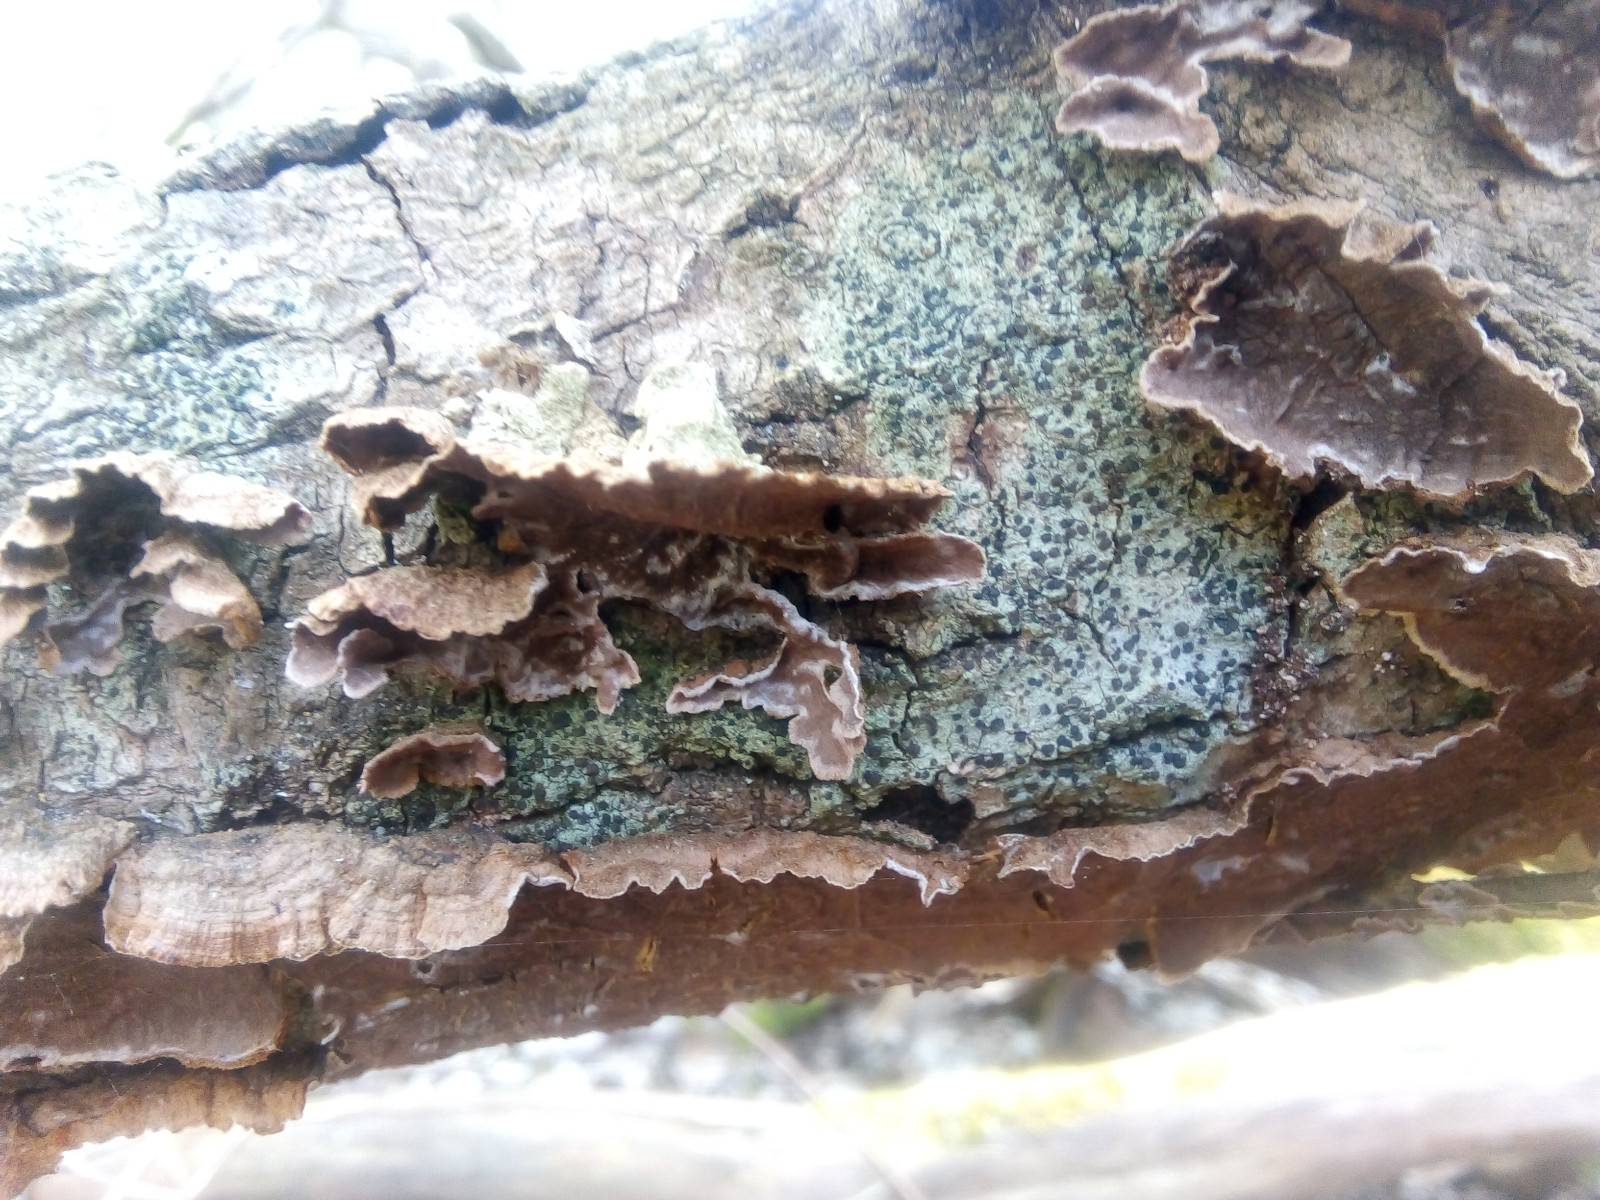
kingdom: Fungi
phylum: Basidiomycota
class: Agaricomycetes
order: Hymenochaetales
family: Hymenochaetaceae
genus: Hydnoporia
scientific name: Hydnoporia tabacina
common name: tobaksbrun ruslædersvamp
